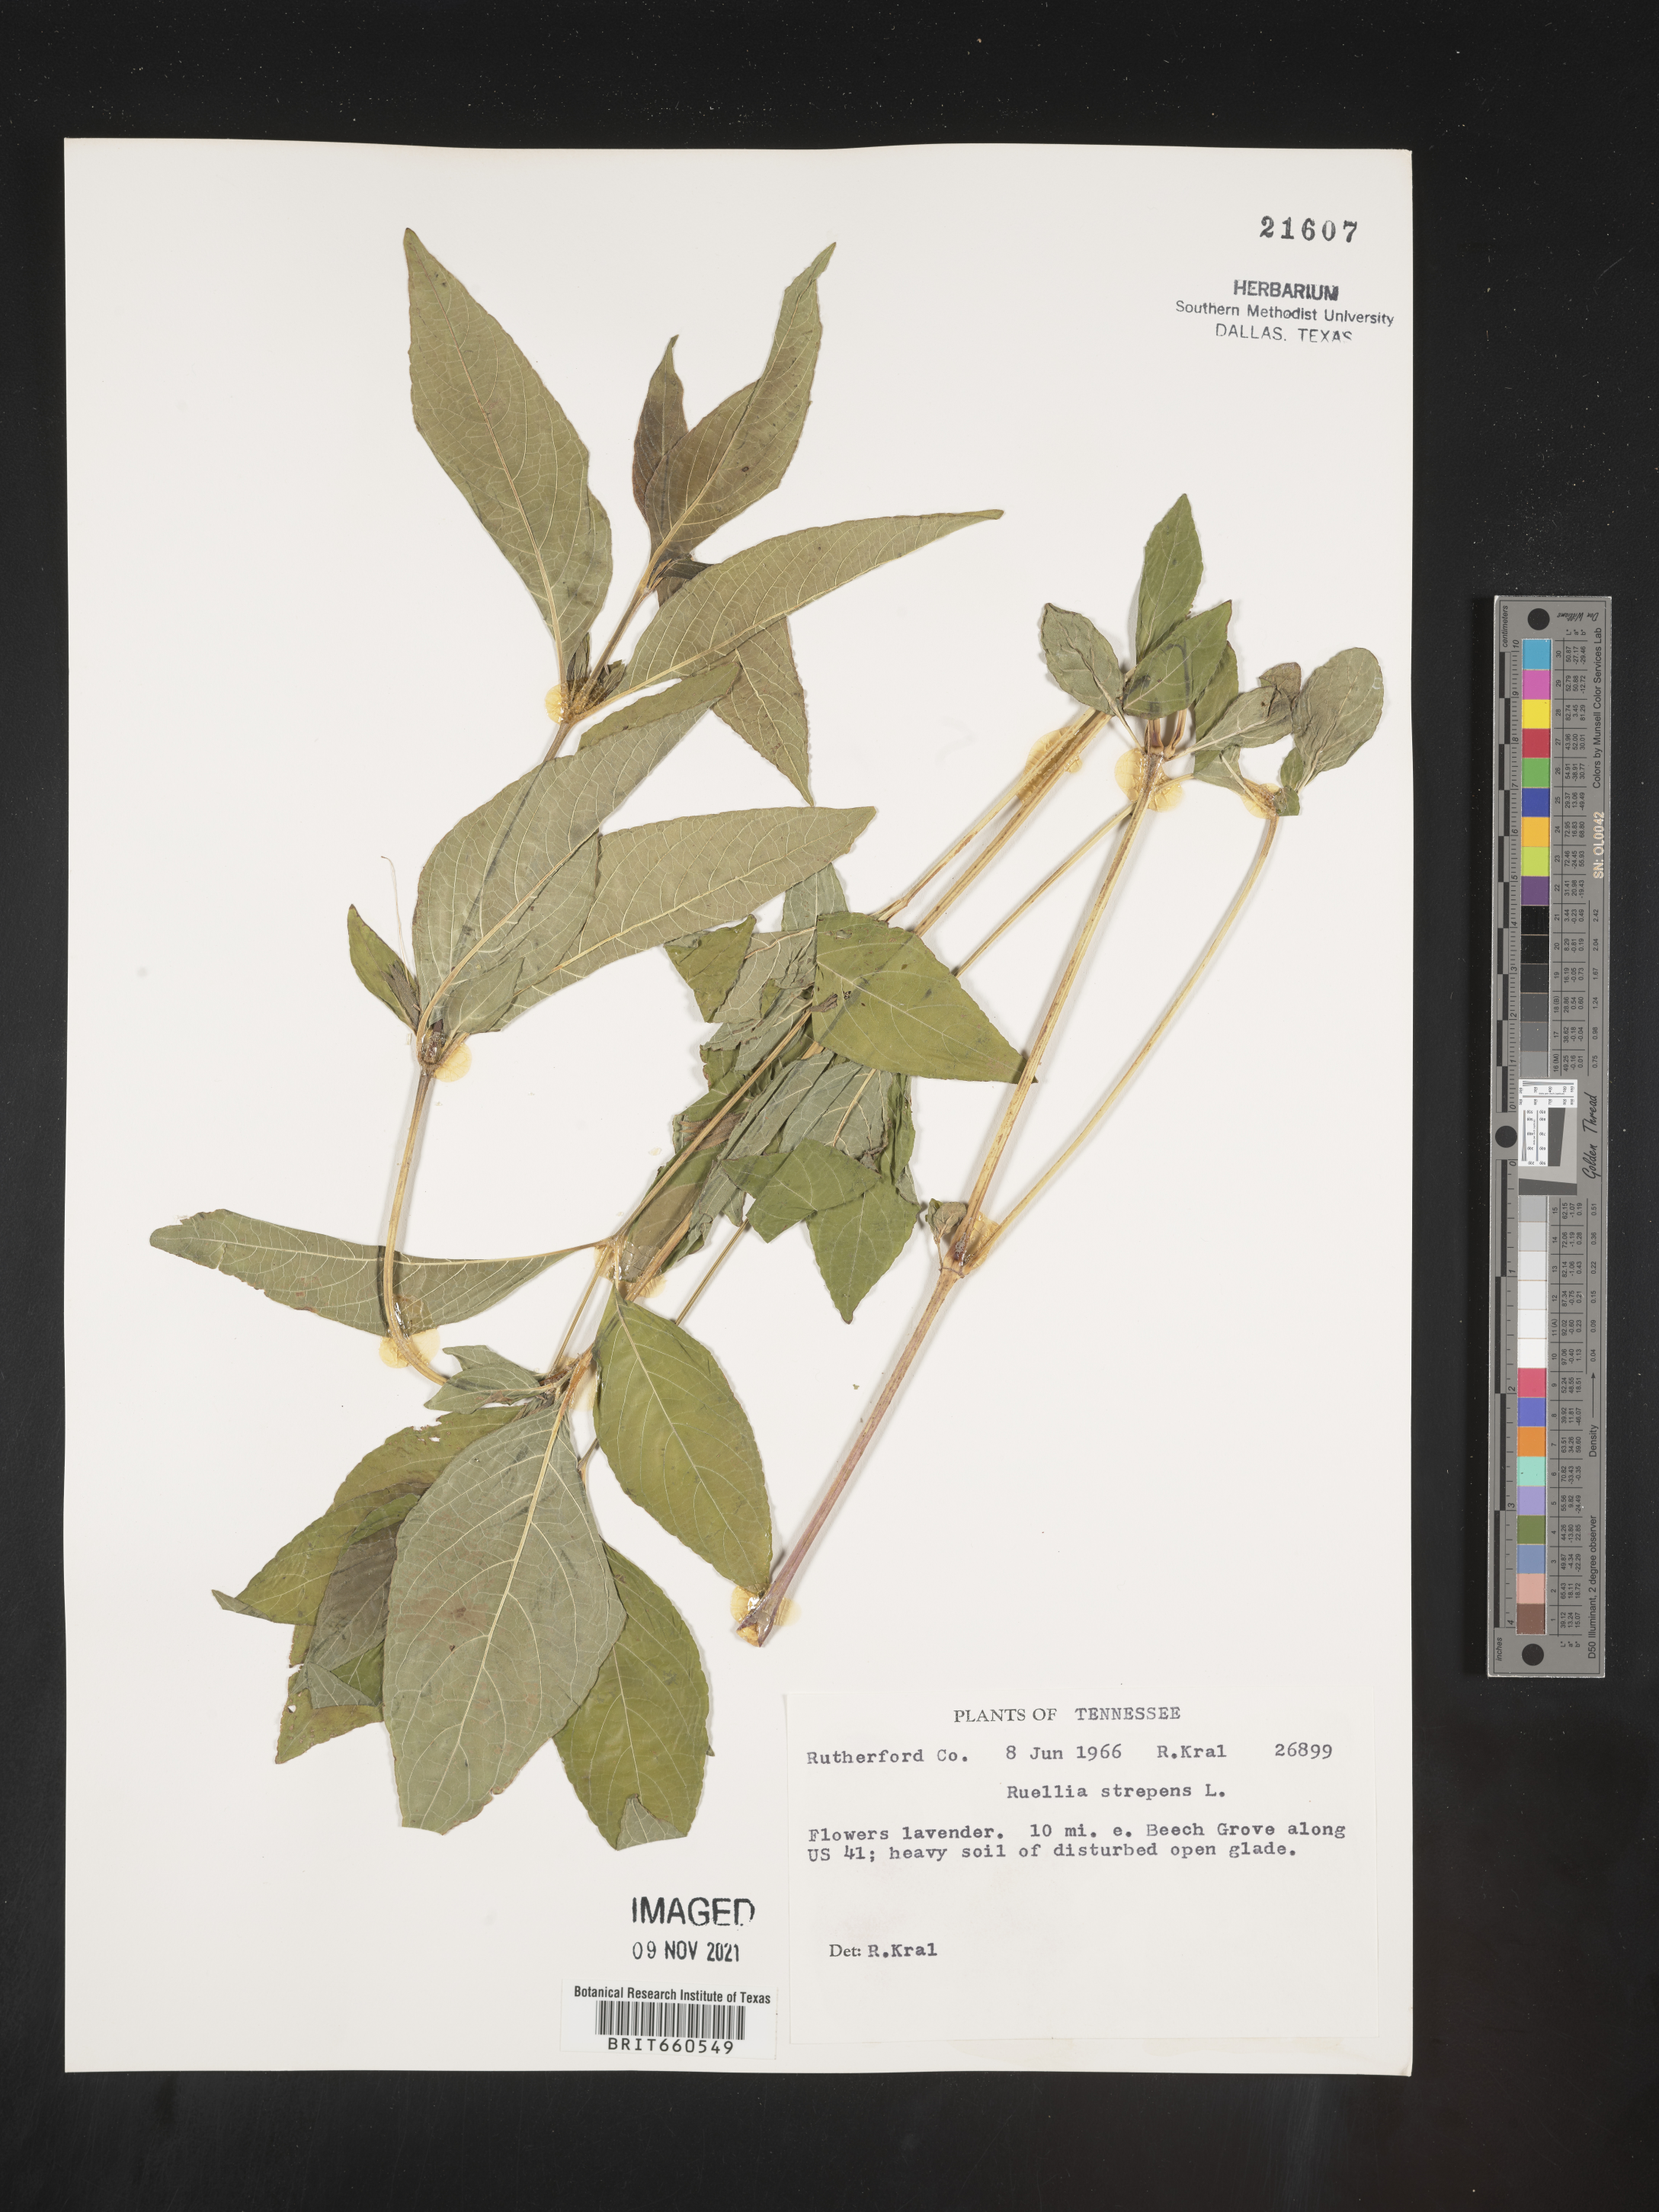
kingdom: Plantae
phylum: Tracheophyta
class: Magnoliopsida
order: Lamiales
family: Acanthaceae
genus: Ruellia
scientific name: Ruellia strepens
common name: Limestone wild petunia
